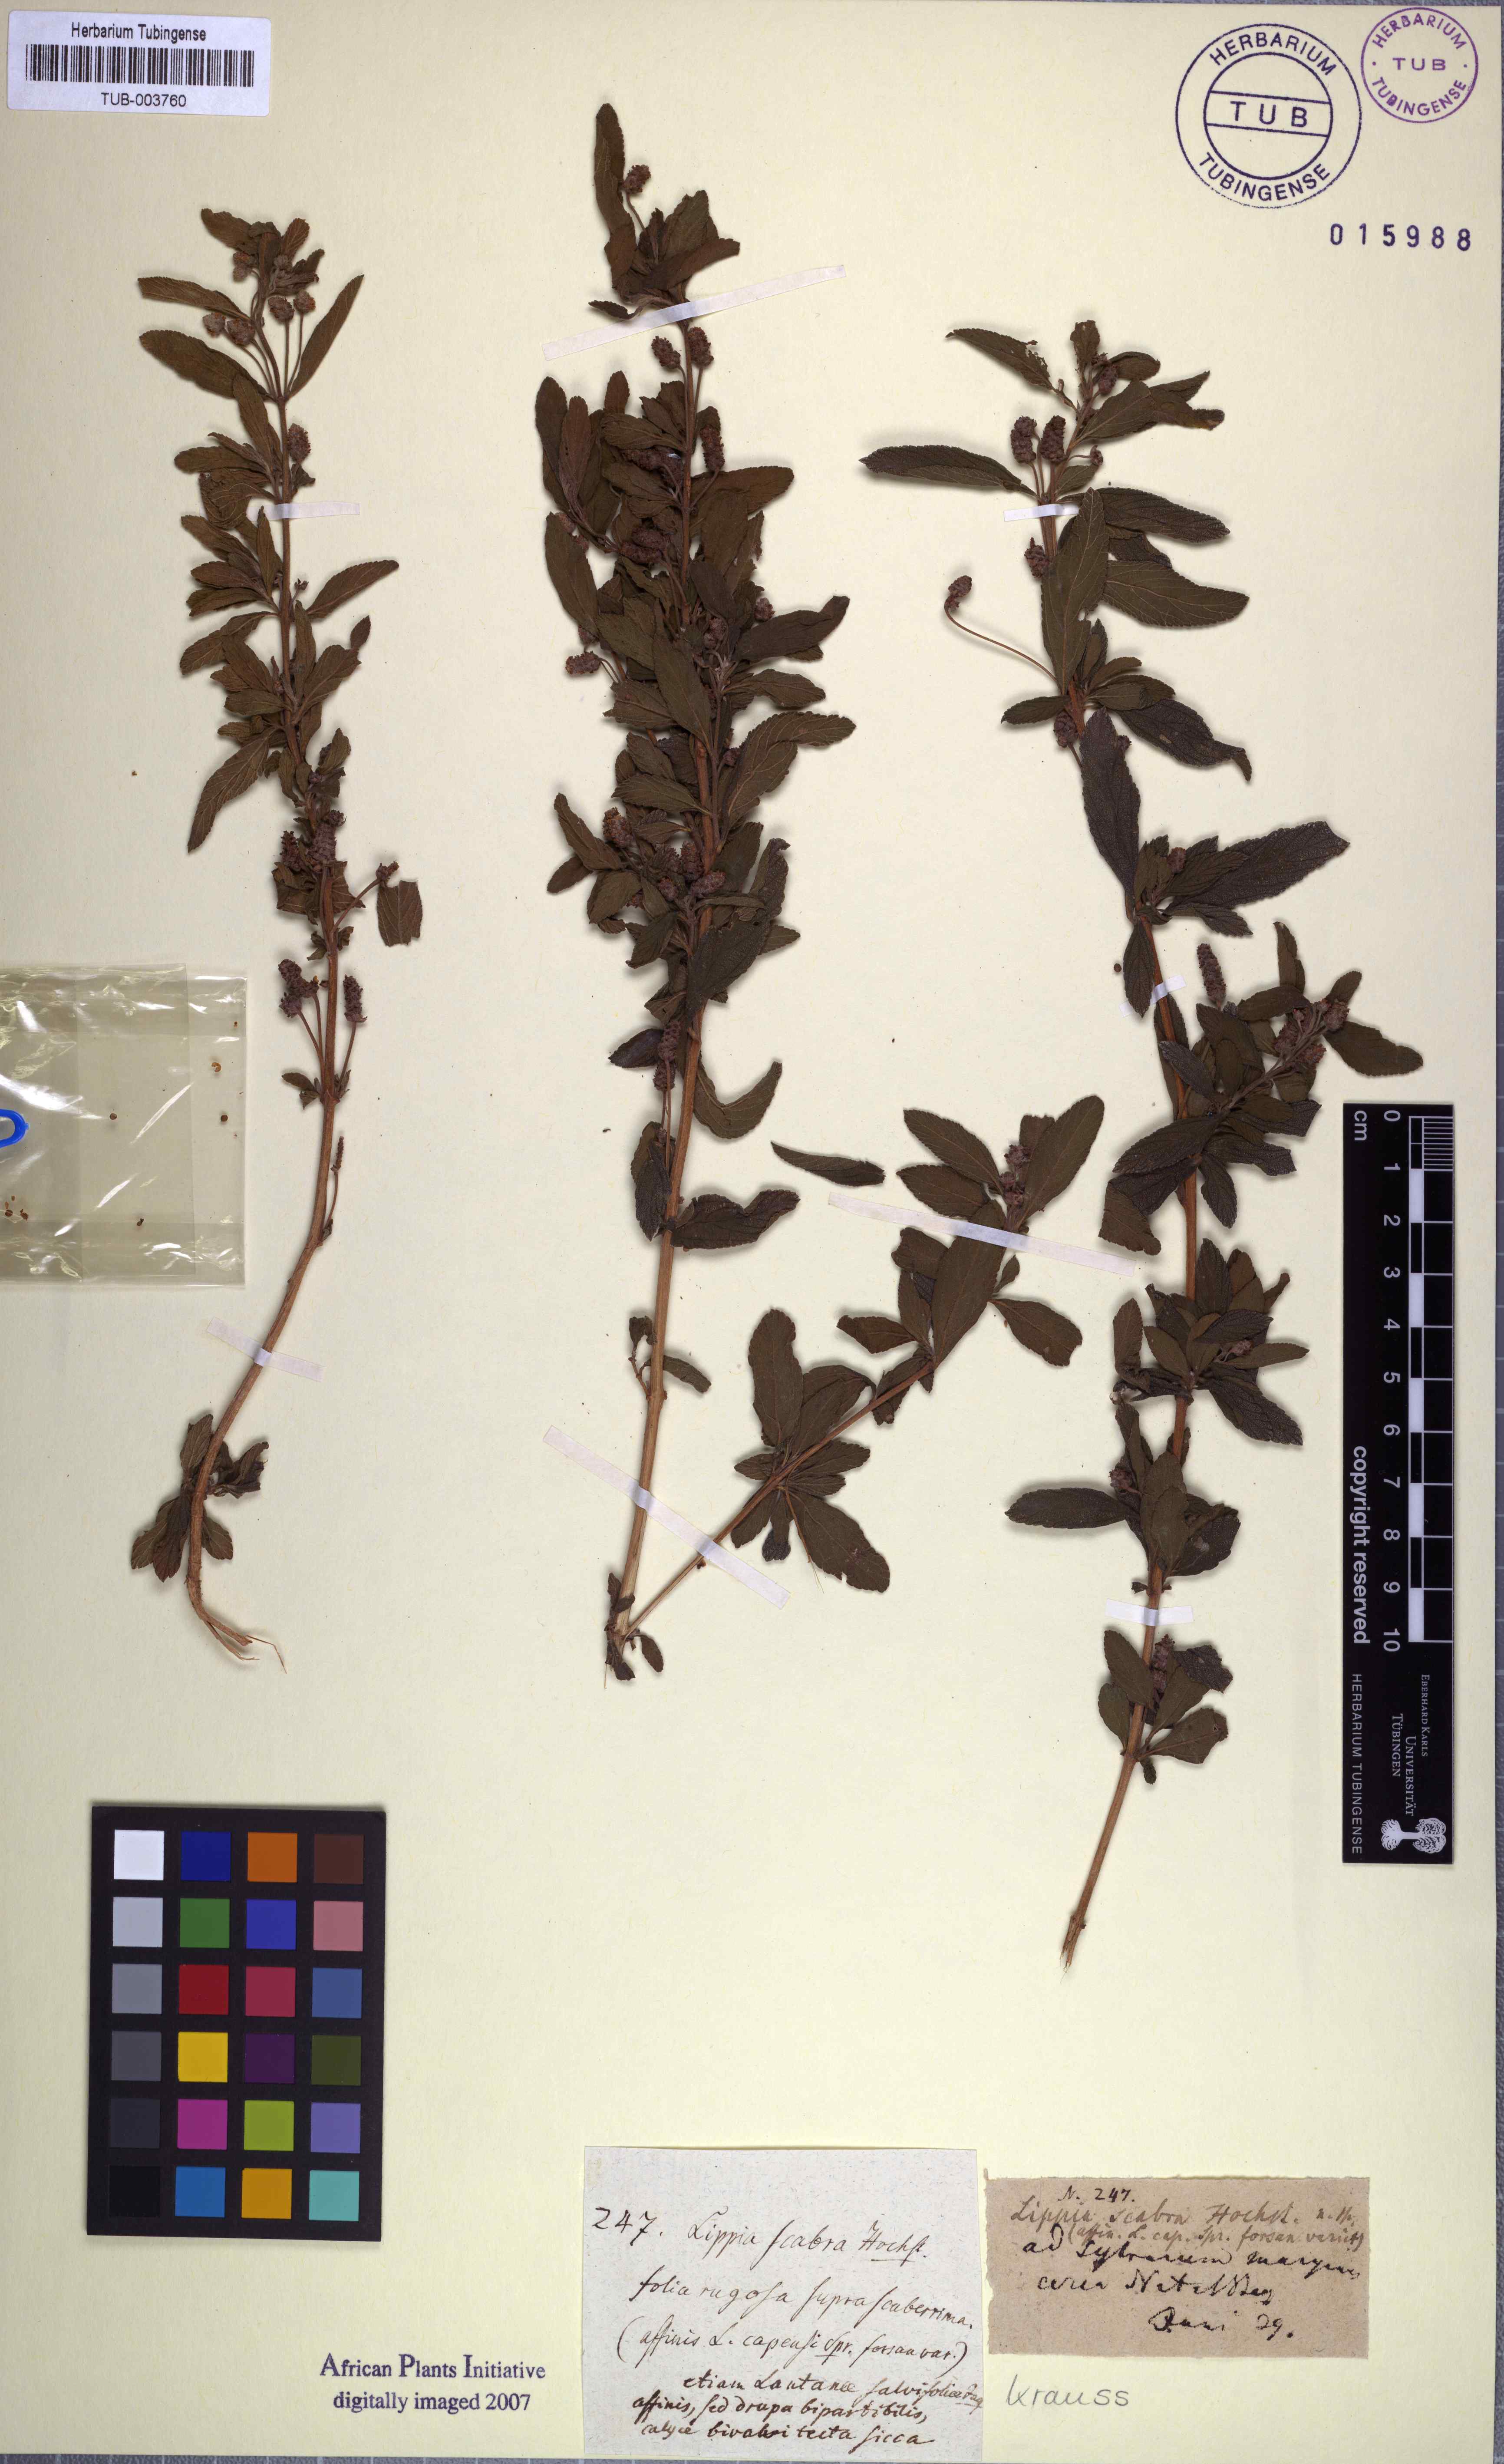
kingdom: Plantae
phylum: Tracheophyta
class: Magnoliopsida
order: Lamiales
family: Verbenaceae
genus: Lippia
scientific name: Lippia asperifolia
